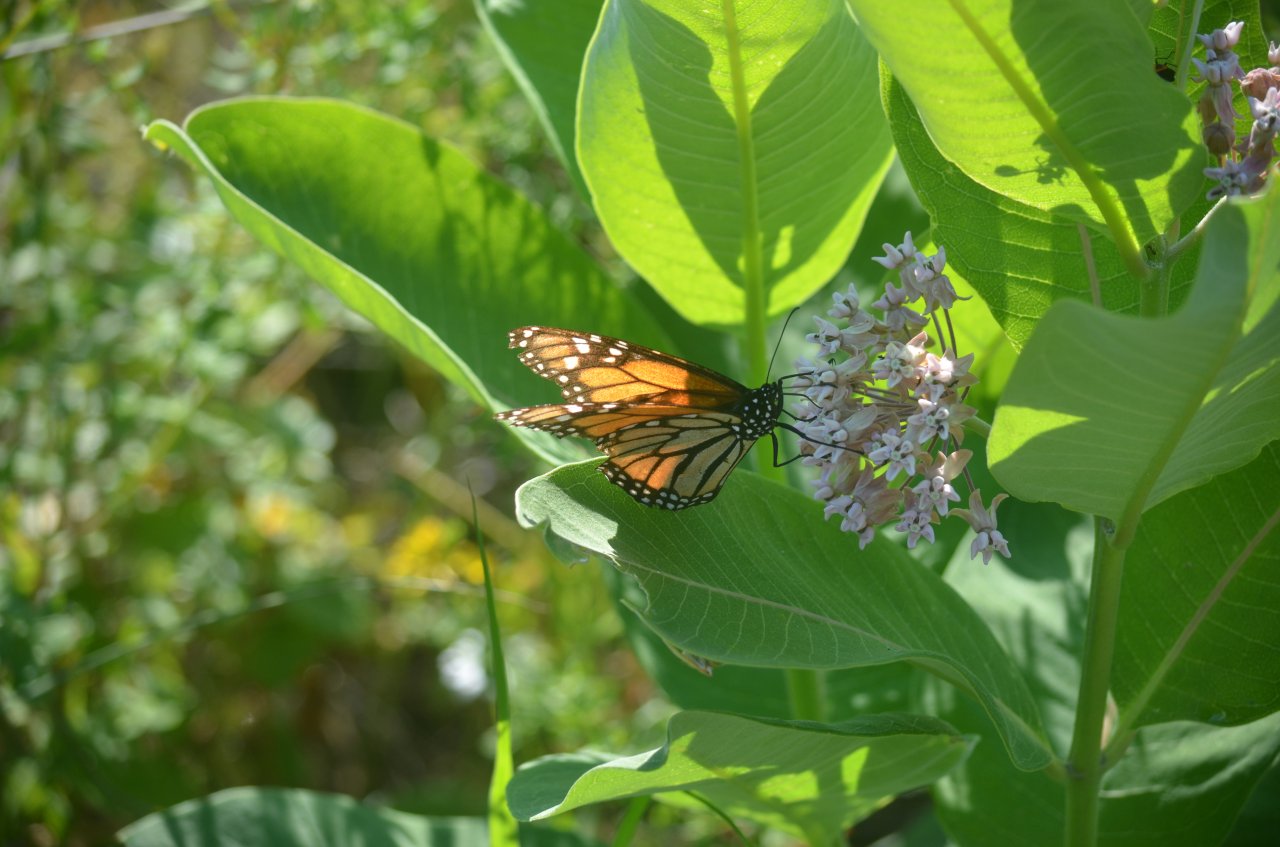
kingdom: Animalia
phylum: Arthropoda
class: Insecta
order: Lepidoptera
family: Nymphalidae
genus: Danaus
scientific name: Danaus plexippus
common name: Monarch
